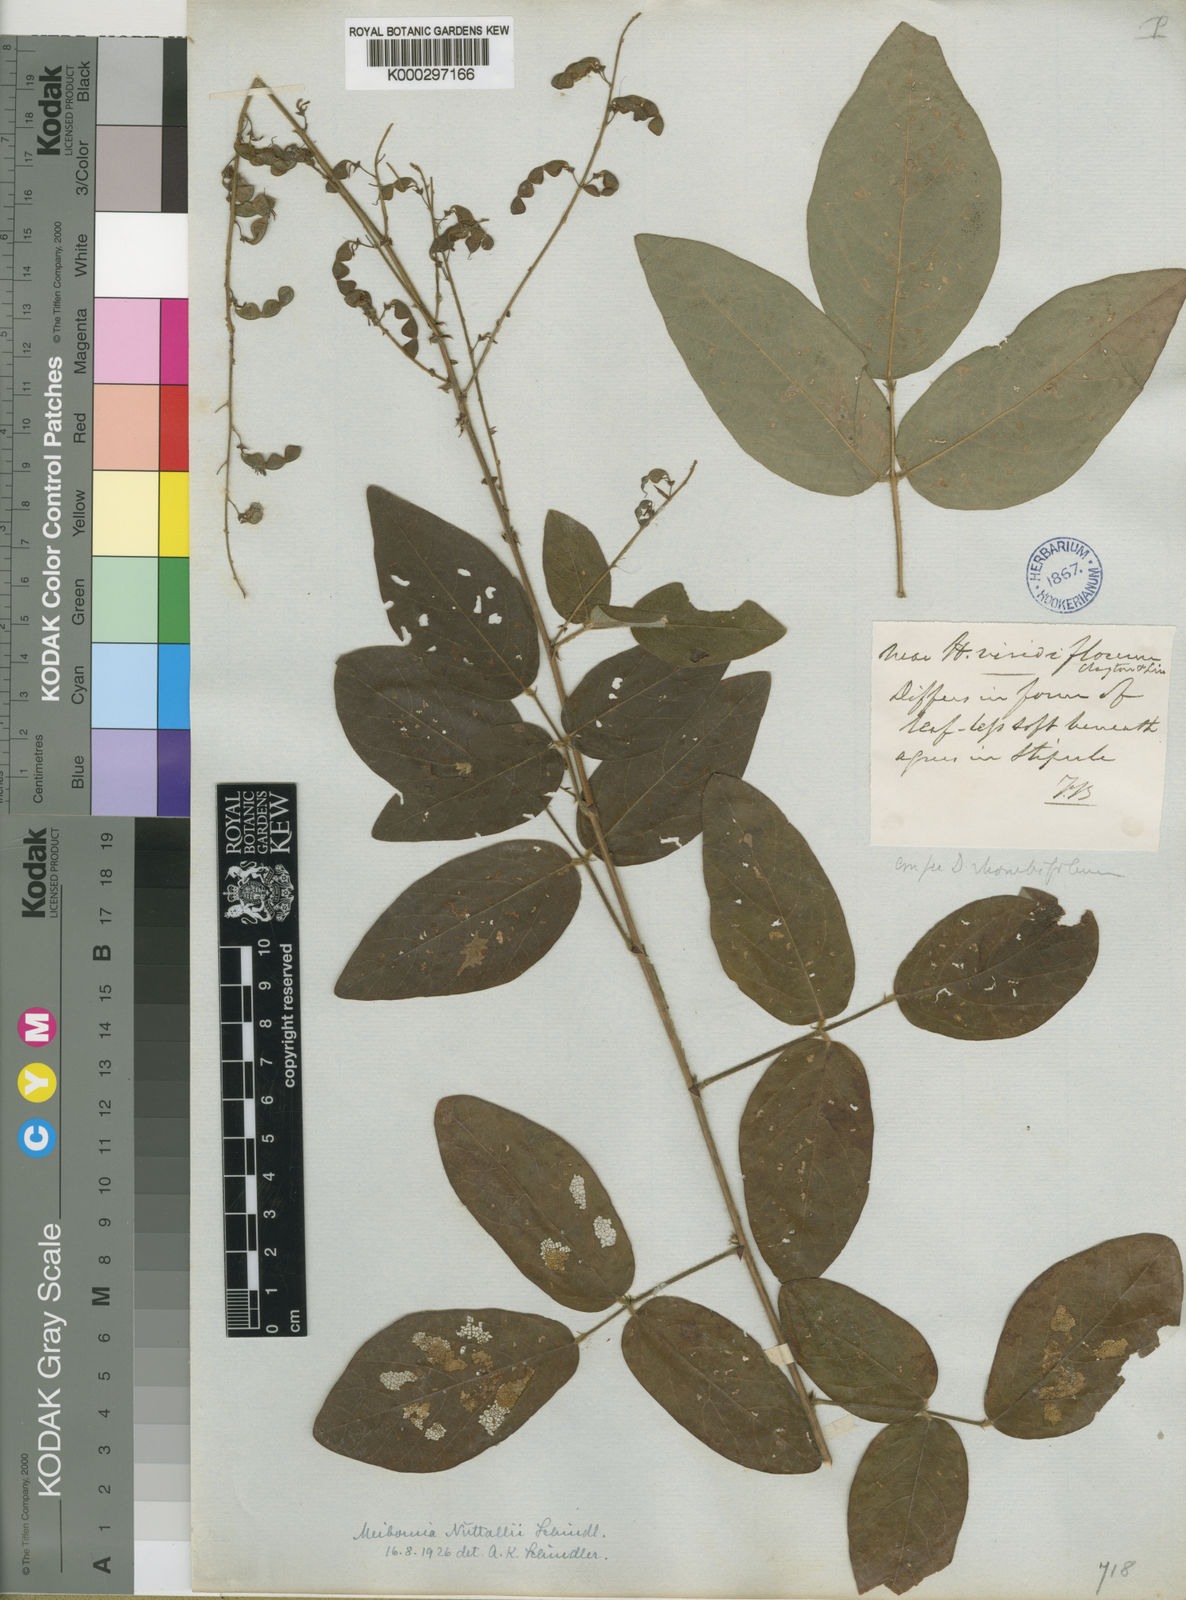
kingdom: Plantae
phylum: Tracheophyta
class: Magnoliopsida
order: Fabales
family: Fabaceae
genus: Desmodium
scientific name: Desmodium nuttallii
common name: Nuttall's tick trefoil
